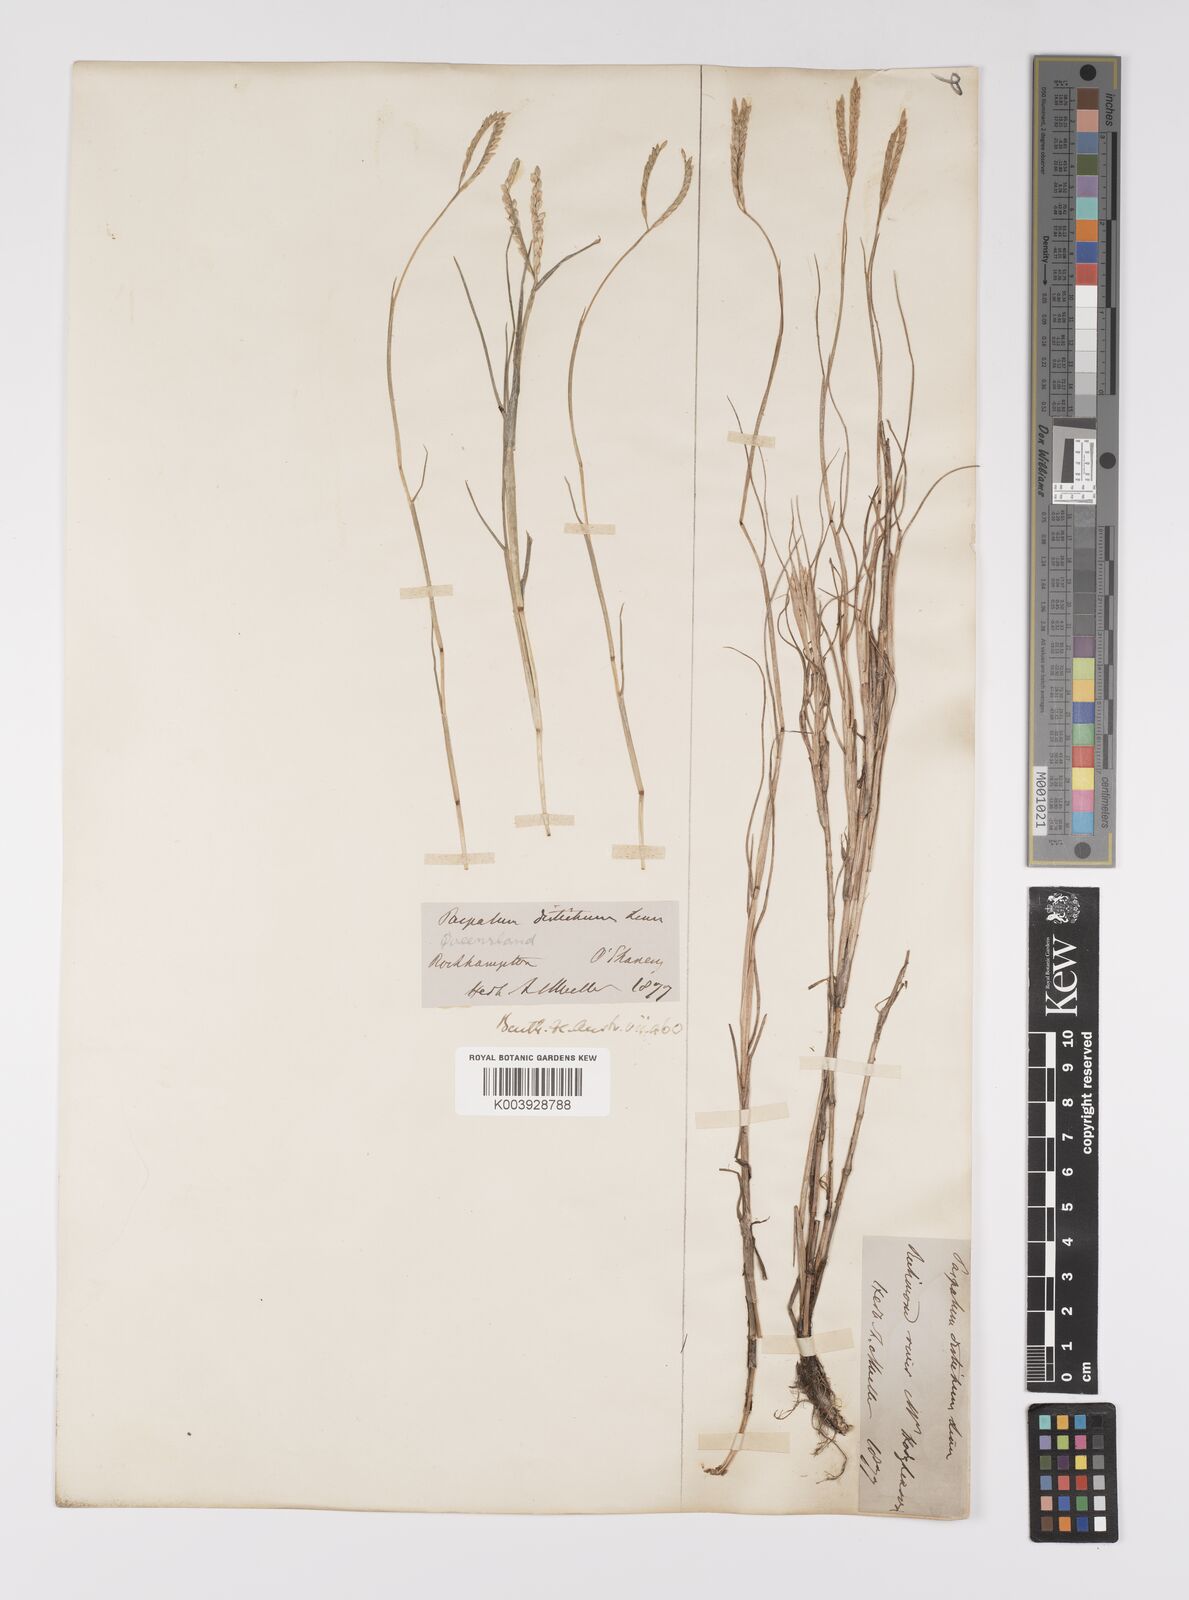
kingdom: Plantae
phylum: Tracheophyta
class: Liliopsida
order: Poales
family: Poaceae
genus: Paspalum
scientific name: Paspalum vaginatum
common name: Seashore paspalum
